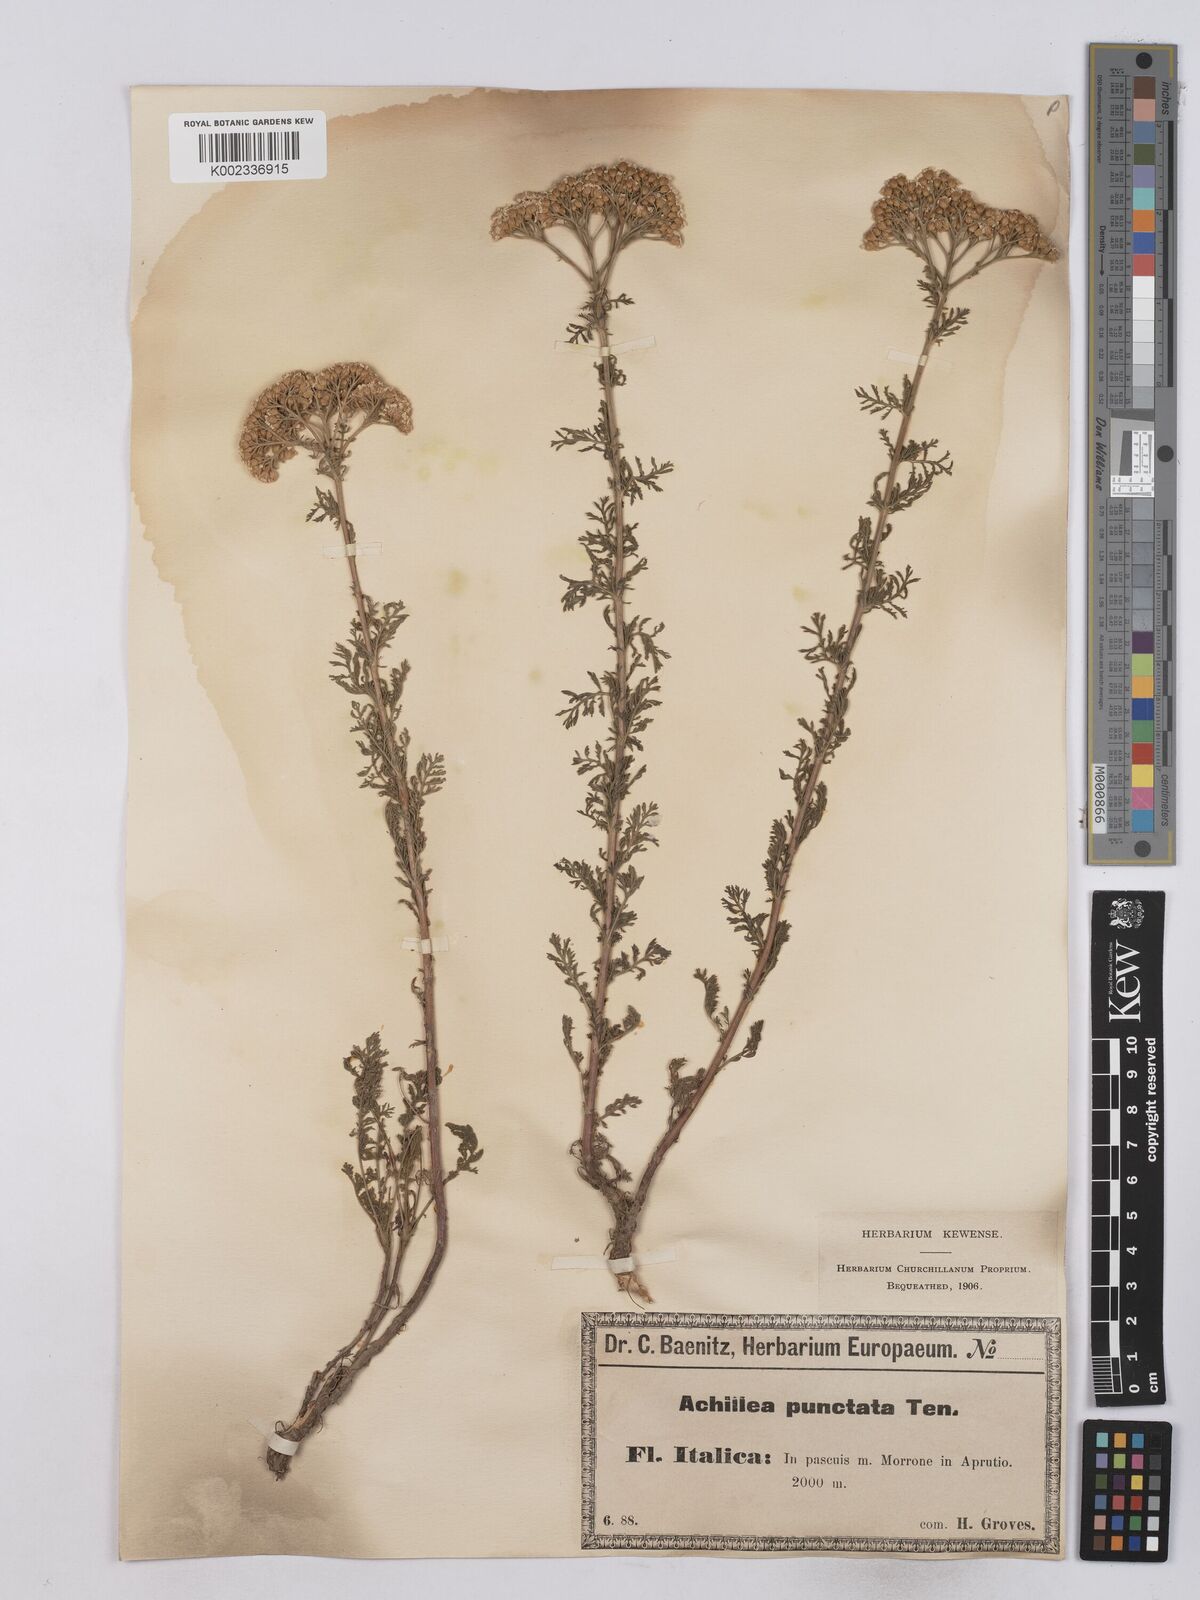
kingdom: Plantae
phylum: Tracheophyta
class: Magnoliopsida
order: Asterales
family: Asteraceae
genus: Achillea
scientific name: Achillea odorata
